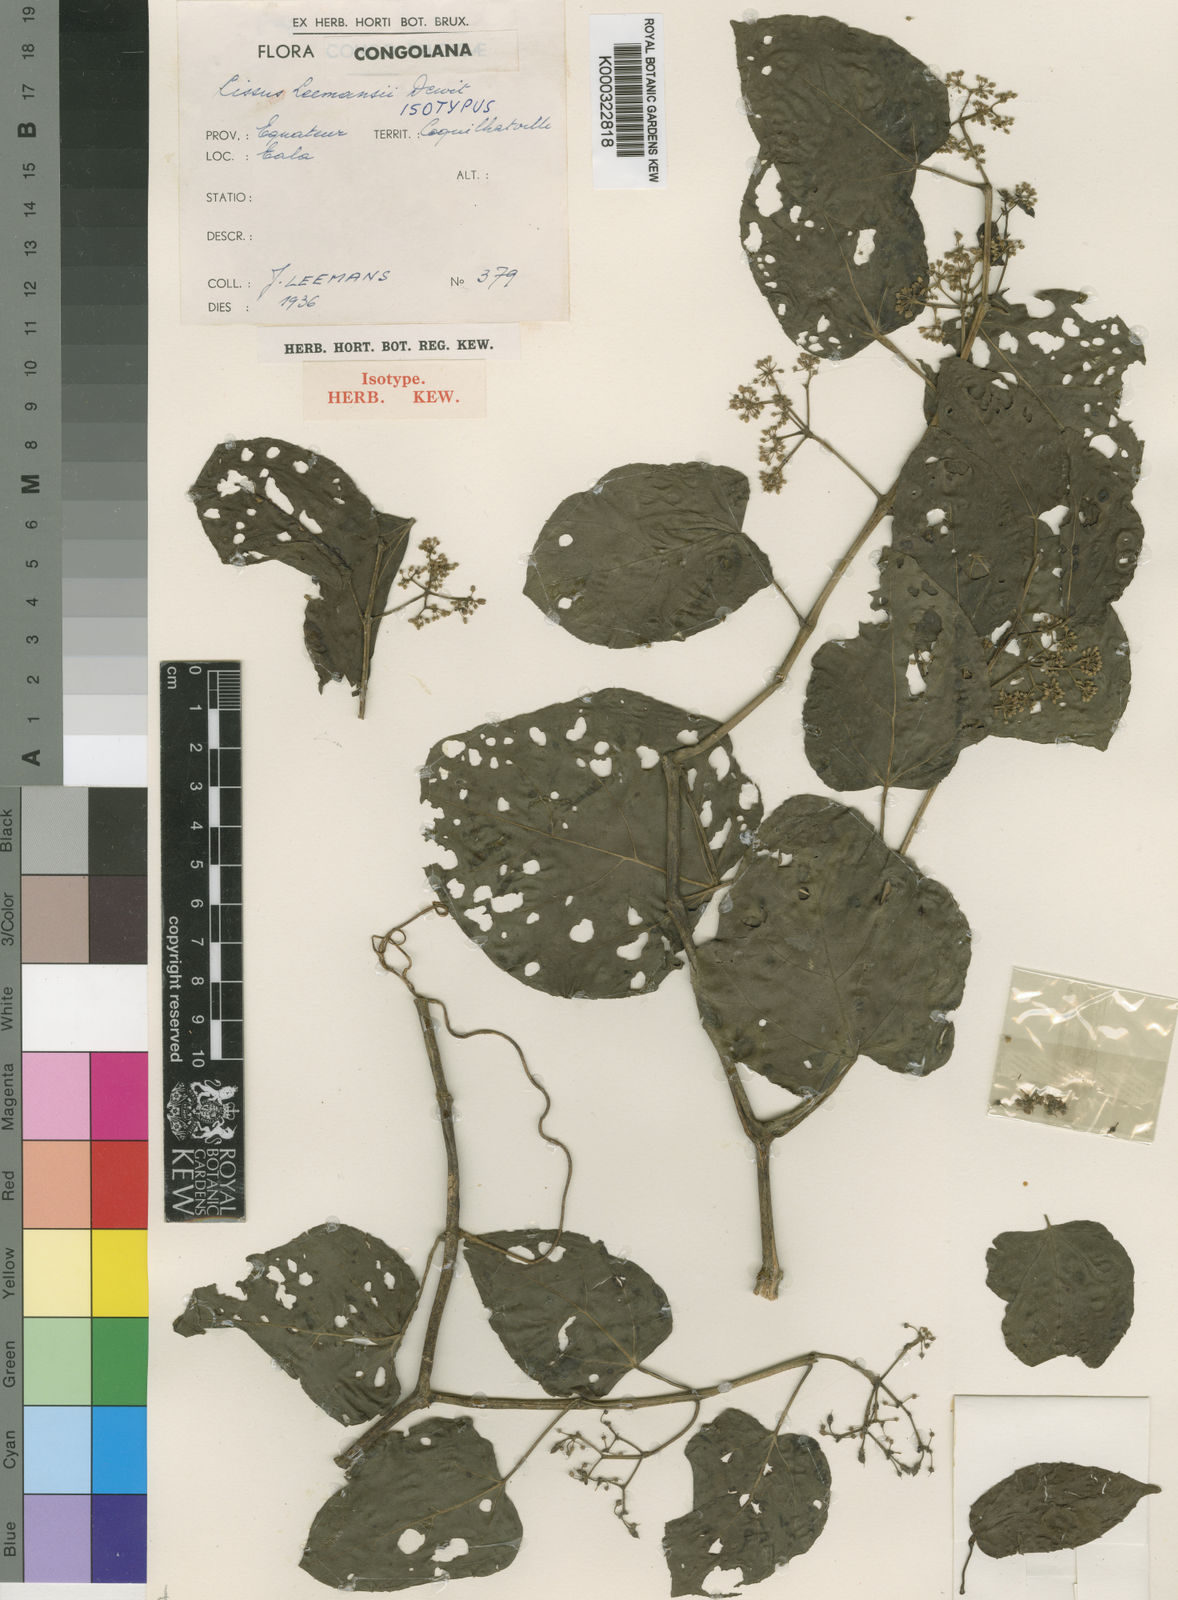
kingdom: Plantae
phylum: Tracheophyta
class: Magnoliopsida
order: Vitales
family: Vitaceae
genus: Cissus
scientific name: Cissus leemansii
